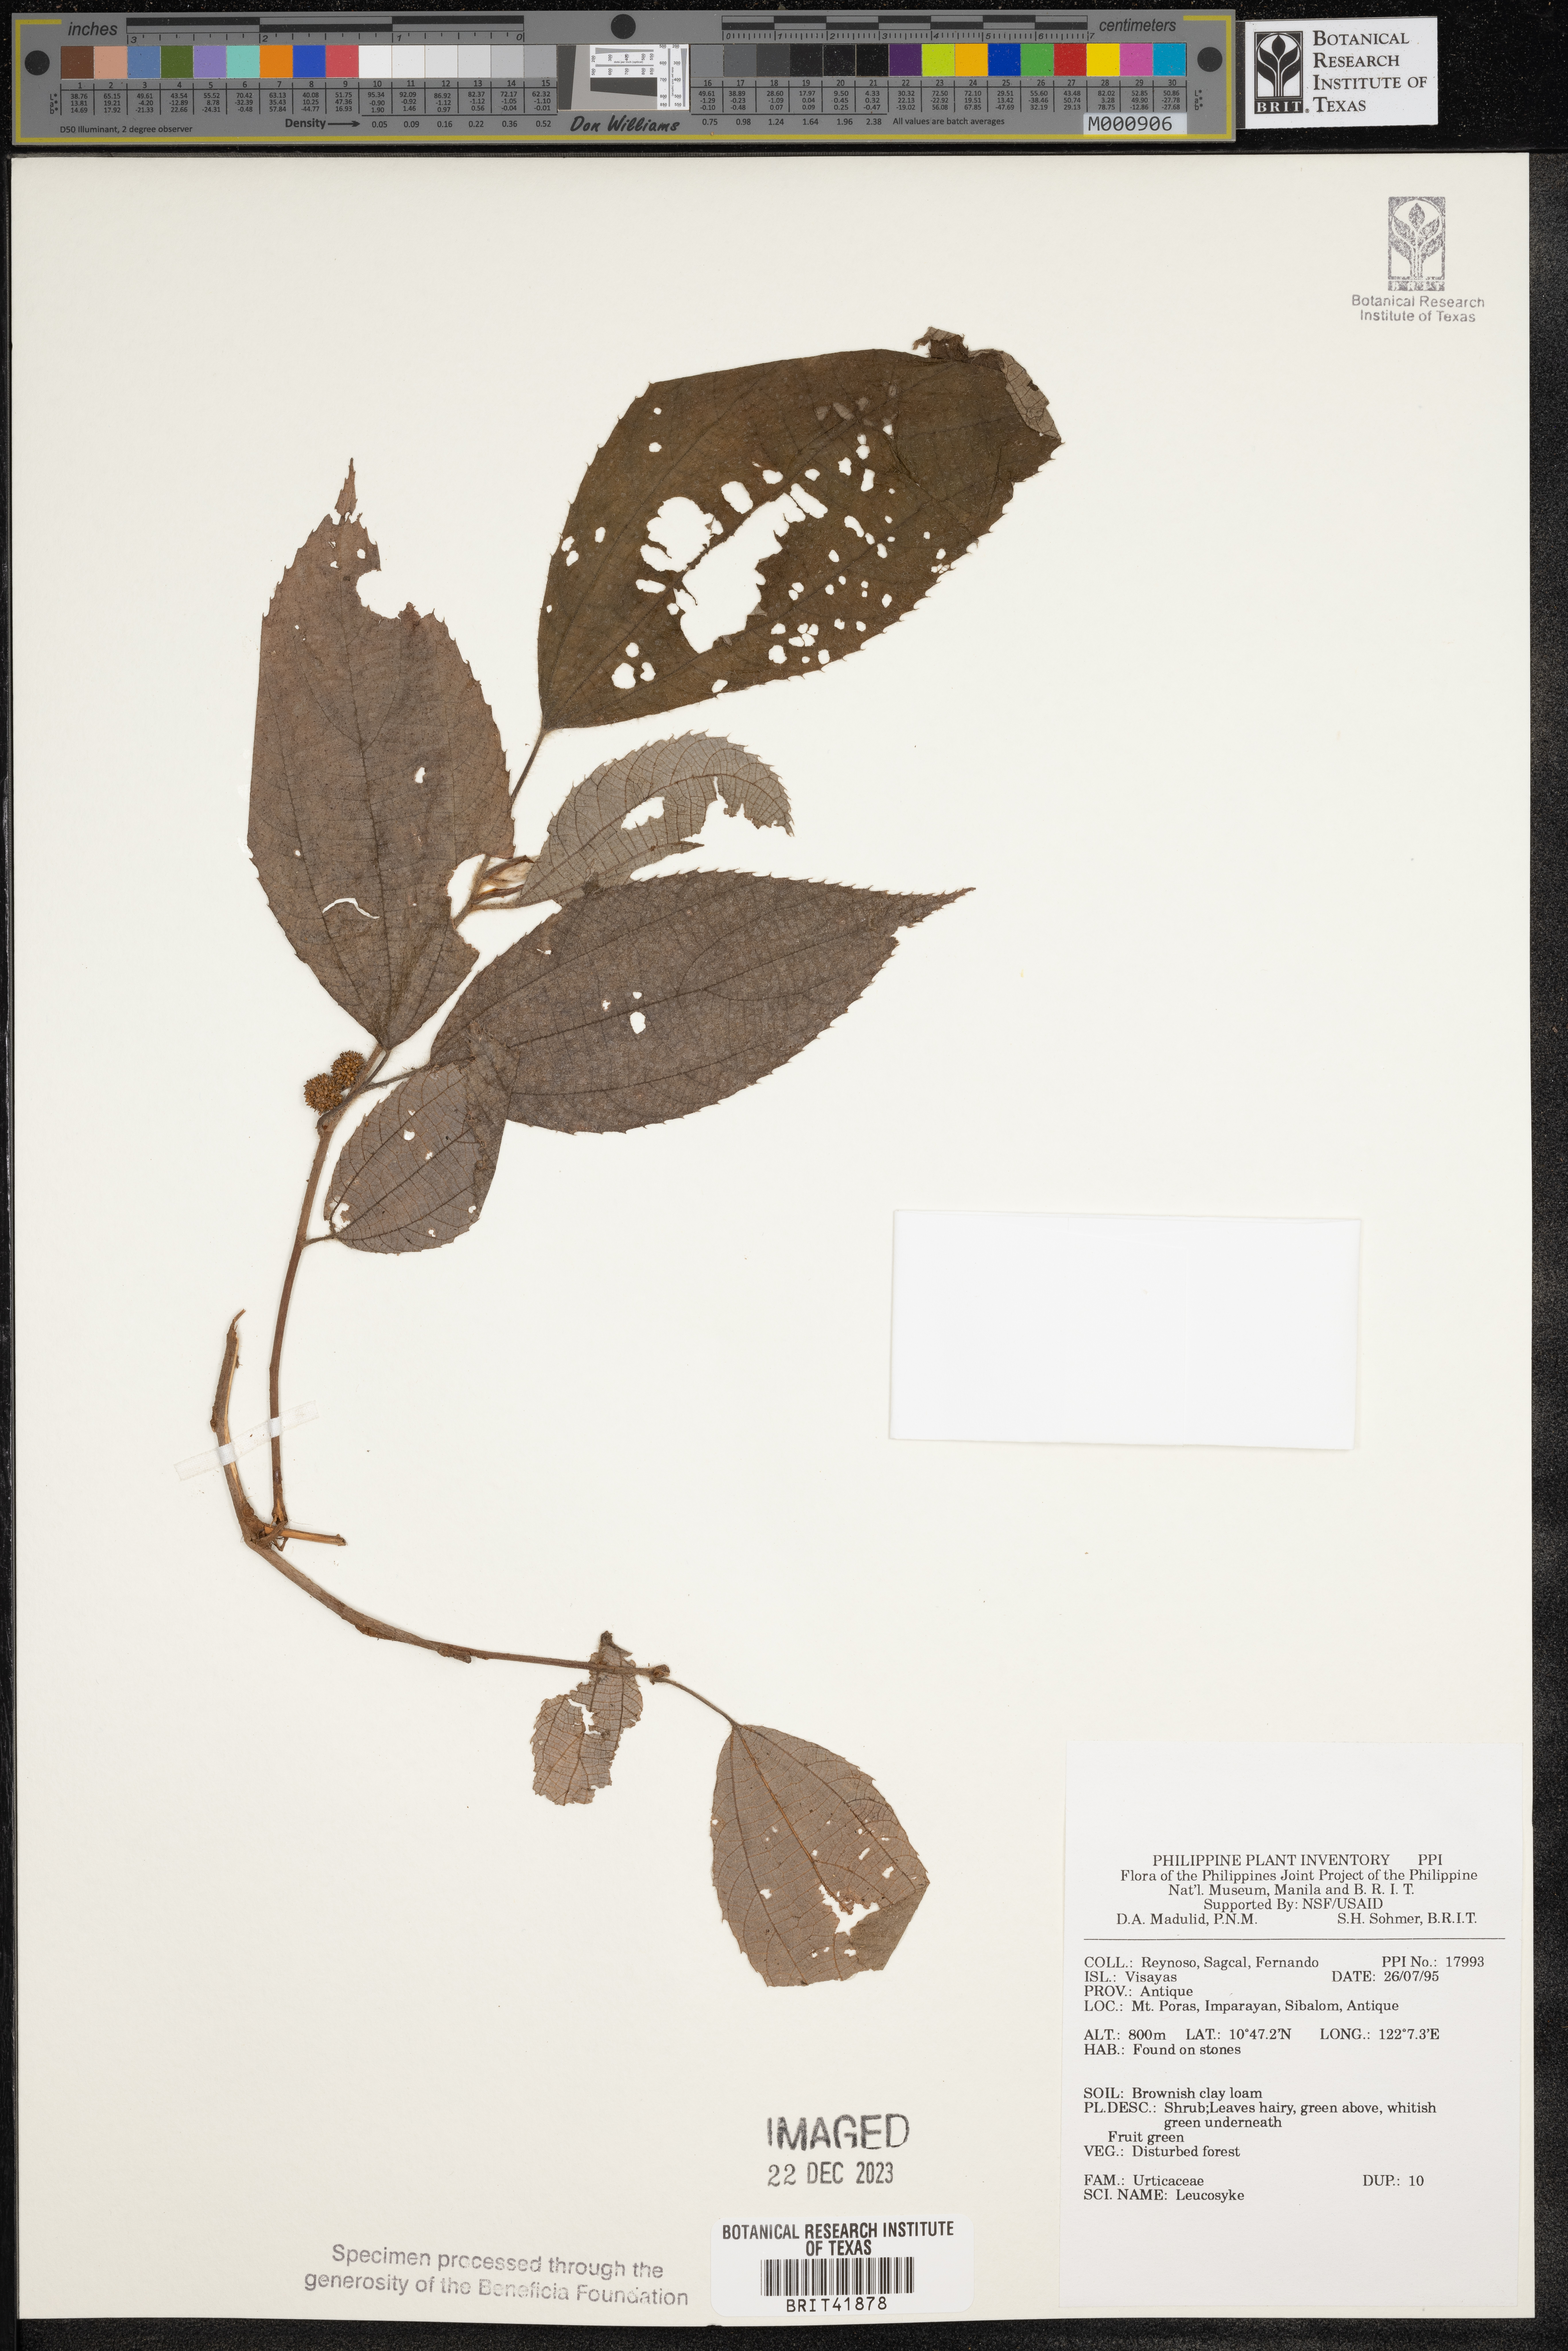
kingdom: Plantae
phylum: Tracheophyta
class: Magnoliopsida
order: Rosales
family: Urticaceae
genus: Leucosyke
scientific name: Leucosyke
